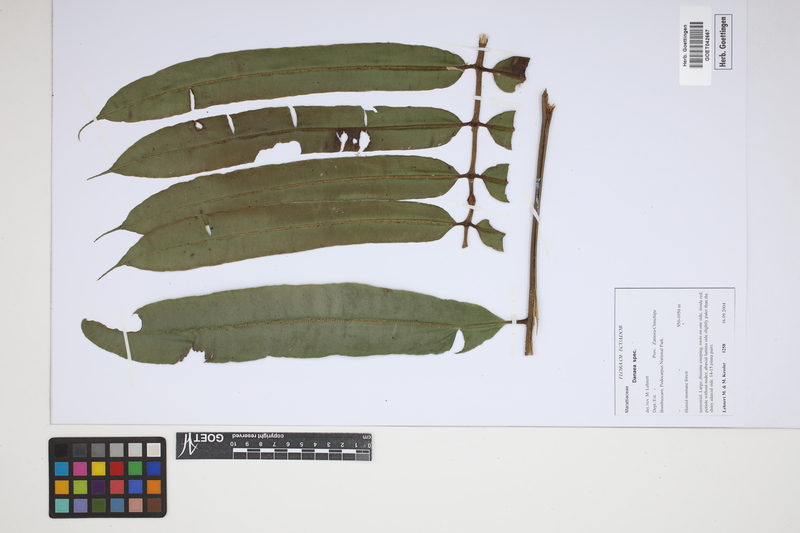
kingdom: Plantae
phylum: Tracheophyta
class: Polypodiopsida
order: Marattiales
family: Marattiaceae
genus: Danaea
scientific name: Danaea
